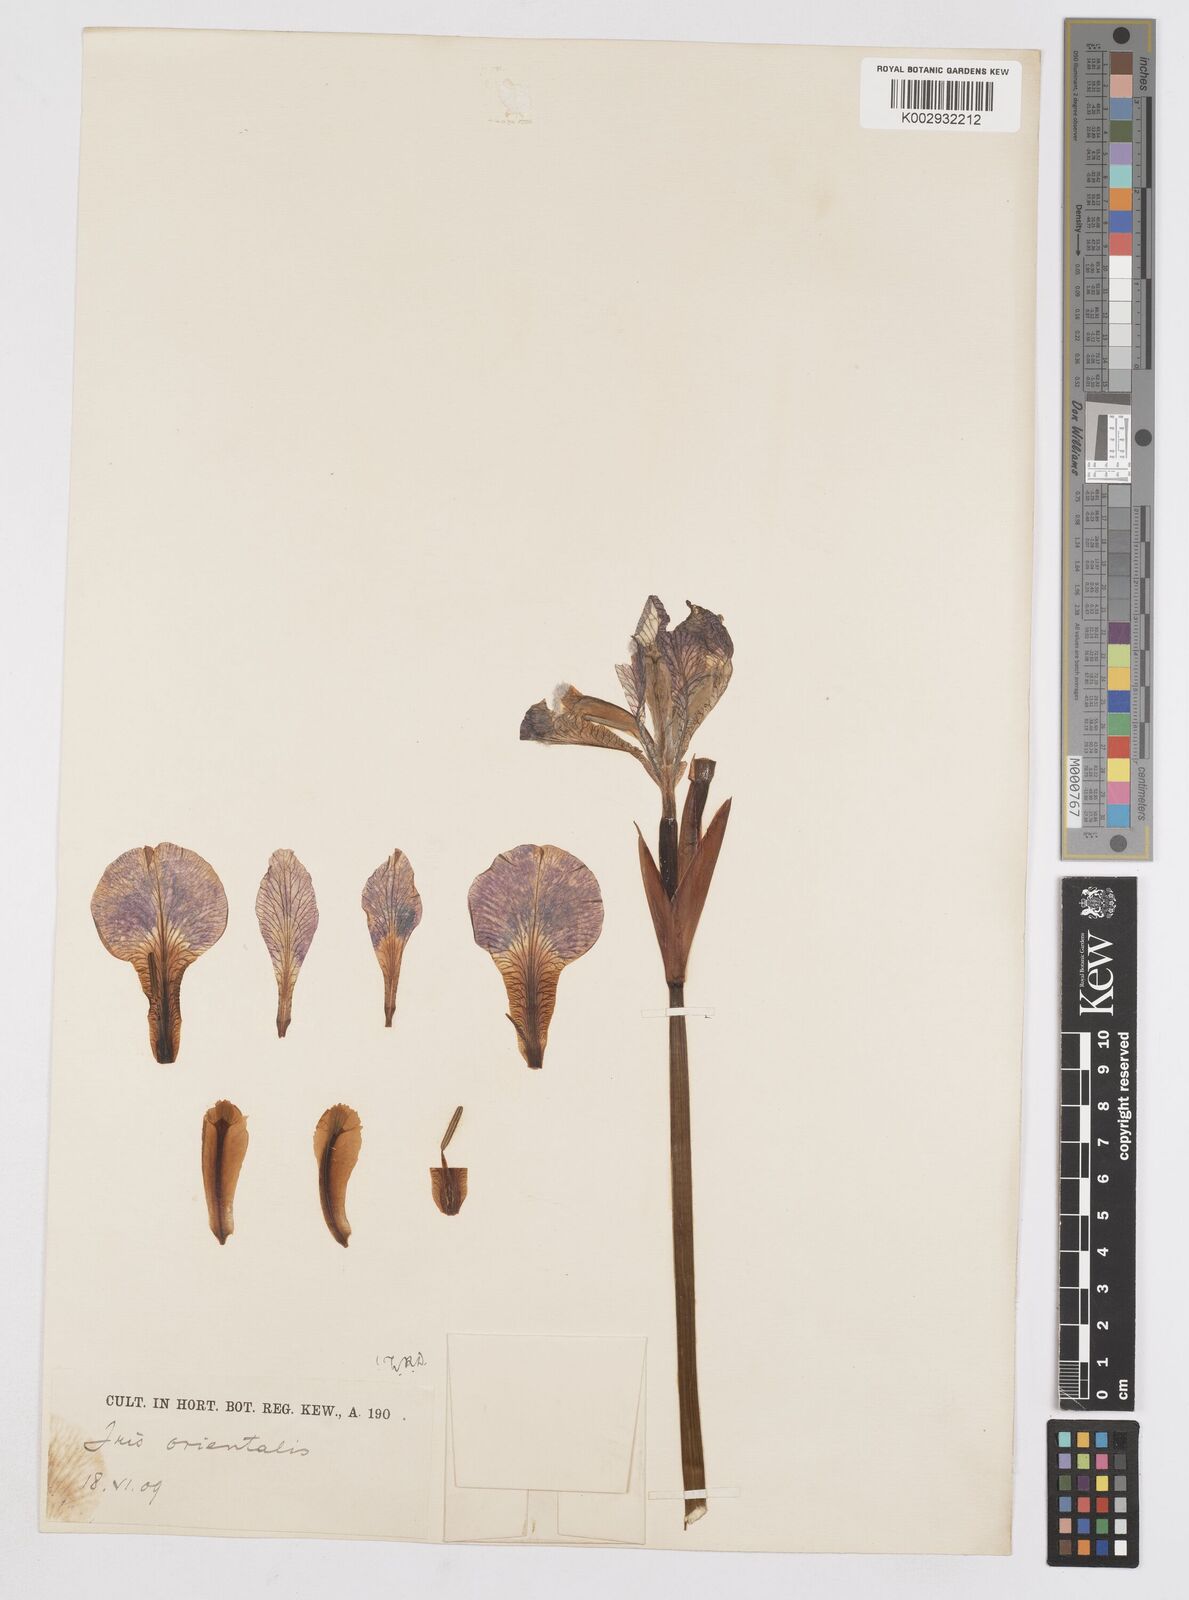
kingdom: Plantae
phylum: Tracheophyta
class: Liliopsida
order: Asparagales
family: Iridaceae
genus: Iris
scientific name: Iris sanguinea
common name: Blood iris
